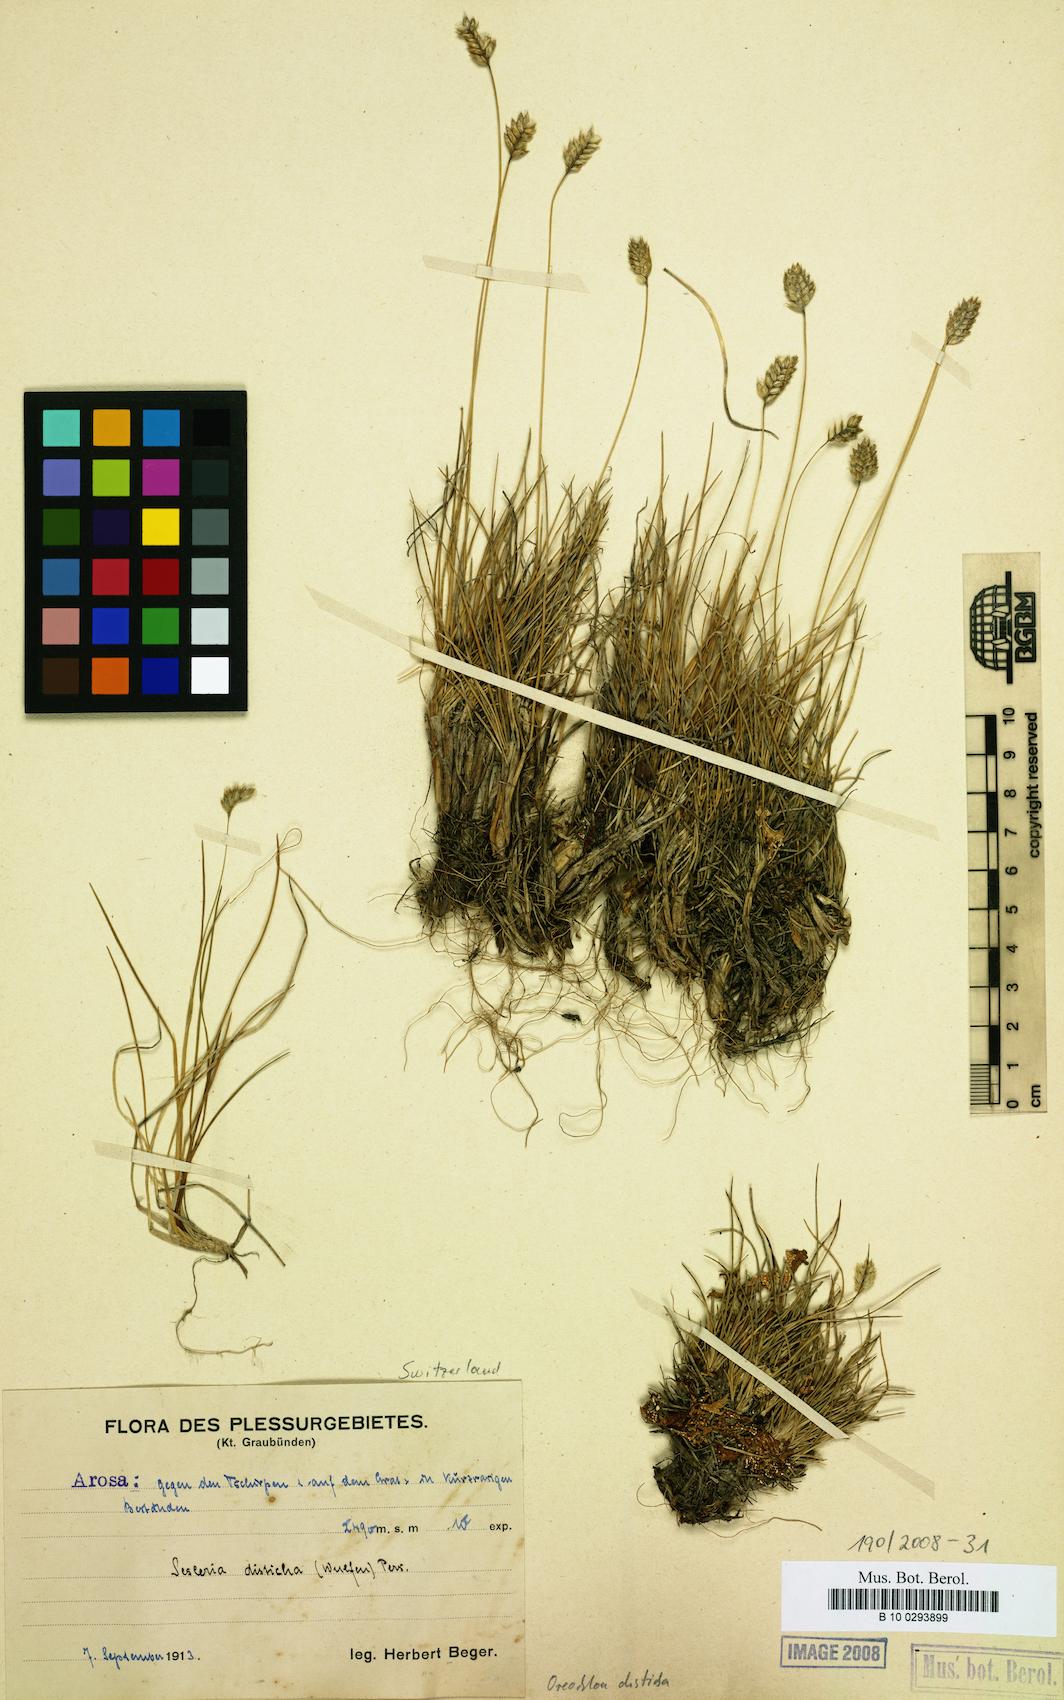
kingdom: Plantae
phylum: Tracheophyta
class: Liliopsida
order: Poales
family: Poaceae
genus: Oreochloa
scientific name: Oreochloa disticha
